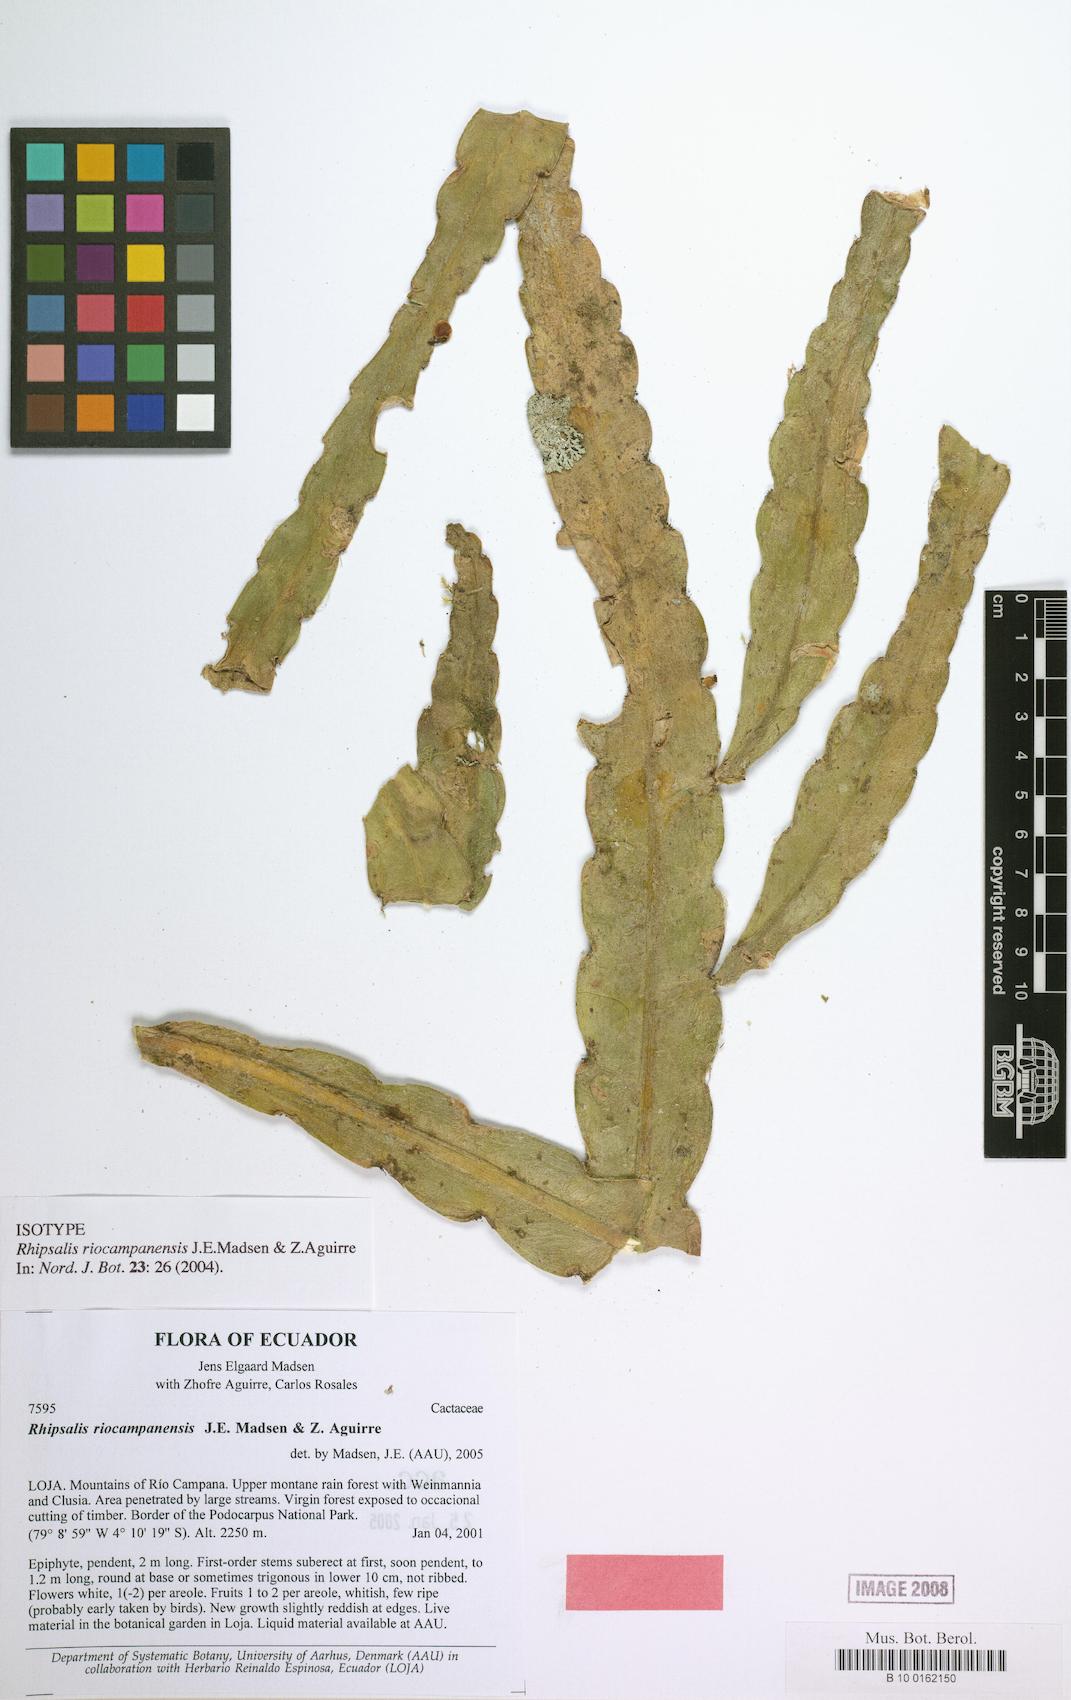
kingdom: Plantae
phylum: Tracheophyta
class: Magnoliopsida
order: Caryophyllales
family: Cactaceae
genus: Lymanbensonia
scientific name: Lymanbensonia brevispina
